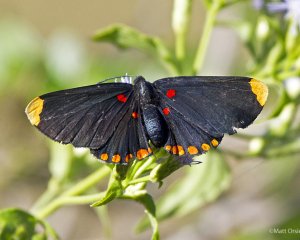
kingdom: Animalia
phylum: Arthropoda
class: Insecta
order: Lepidoptera
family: Lycaenidae
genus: Melanis
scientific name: Melanis pixe
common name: Red-bordered Pixie
